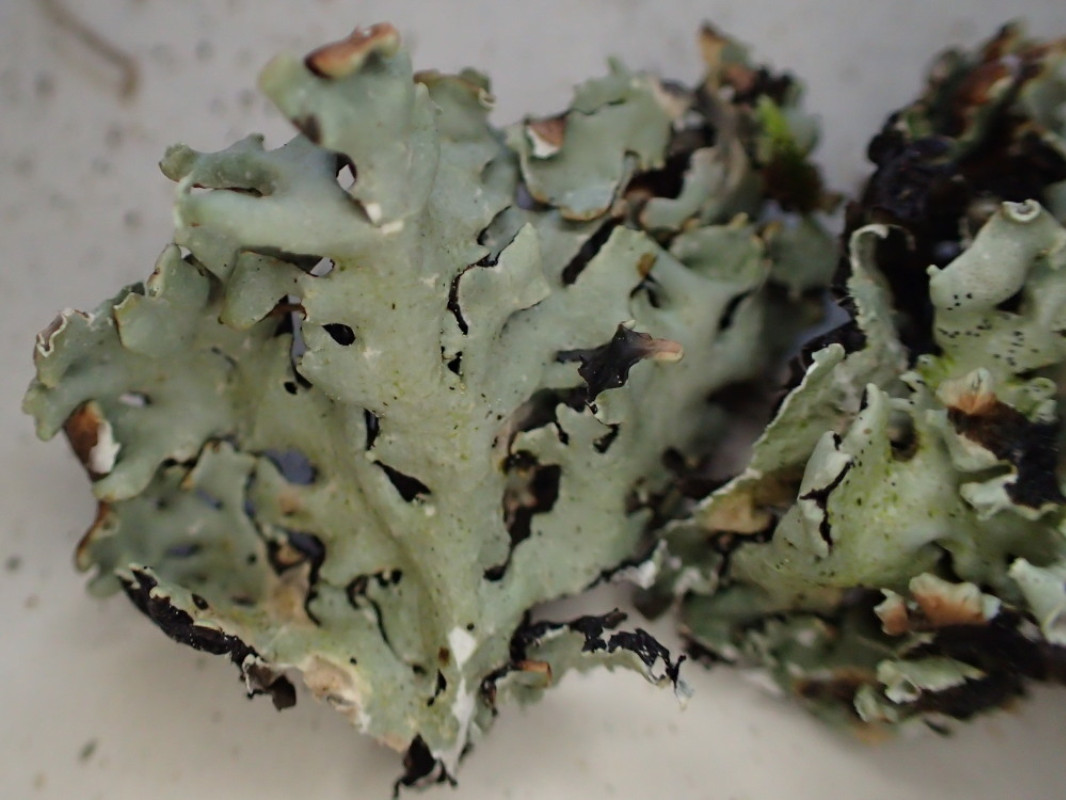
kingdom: Fungi
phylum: Ascomycota
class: Lecanoromycetes
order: Lecanorales
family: Parmeliaceae
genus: Hypogymnia
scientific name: Hypogymnia physodes
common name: almindelig kvistlav
